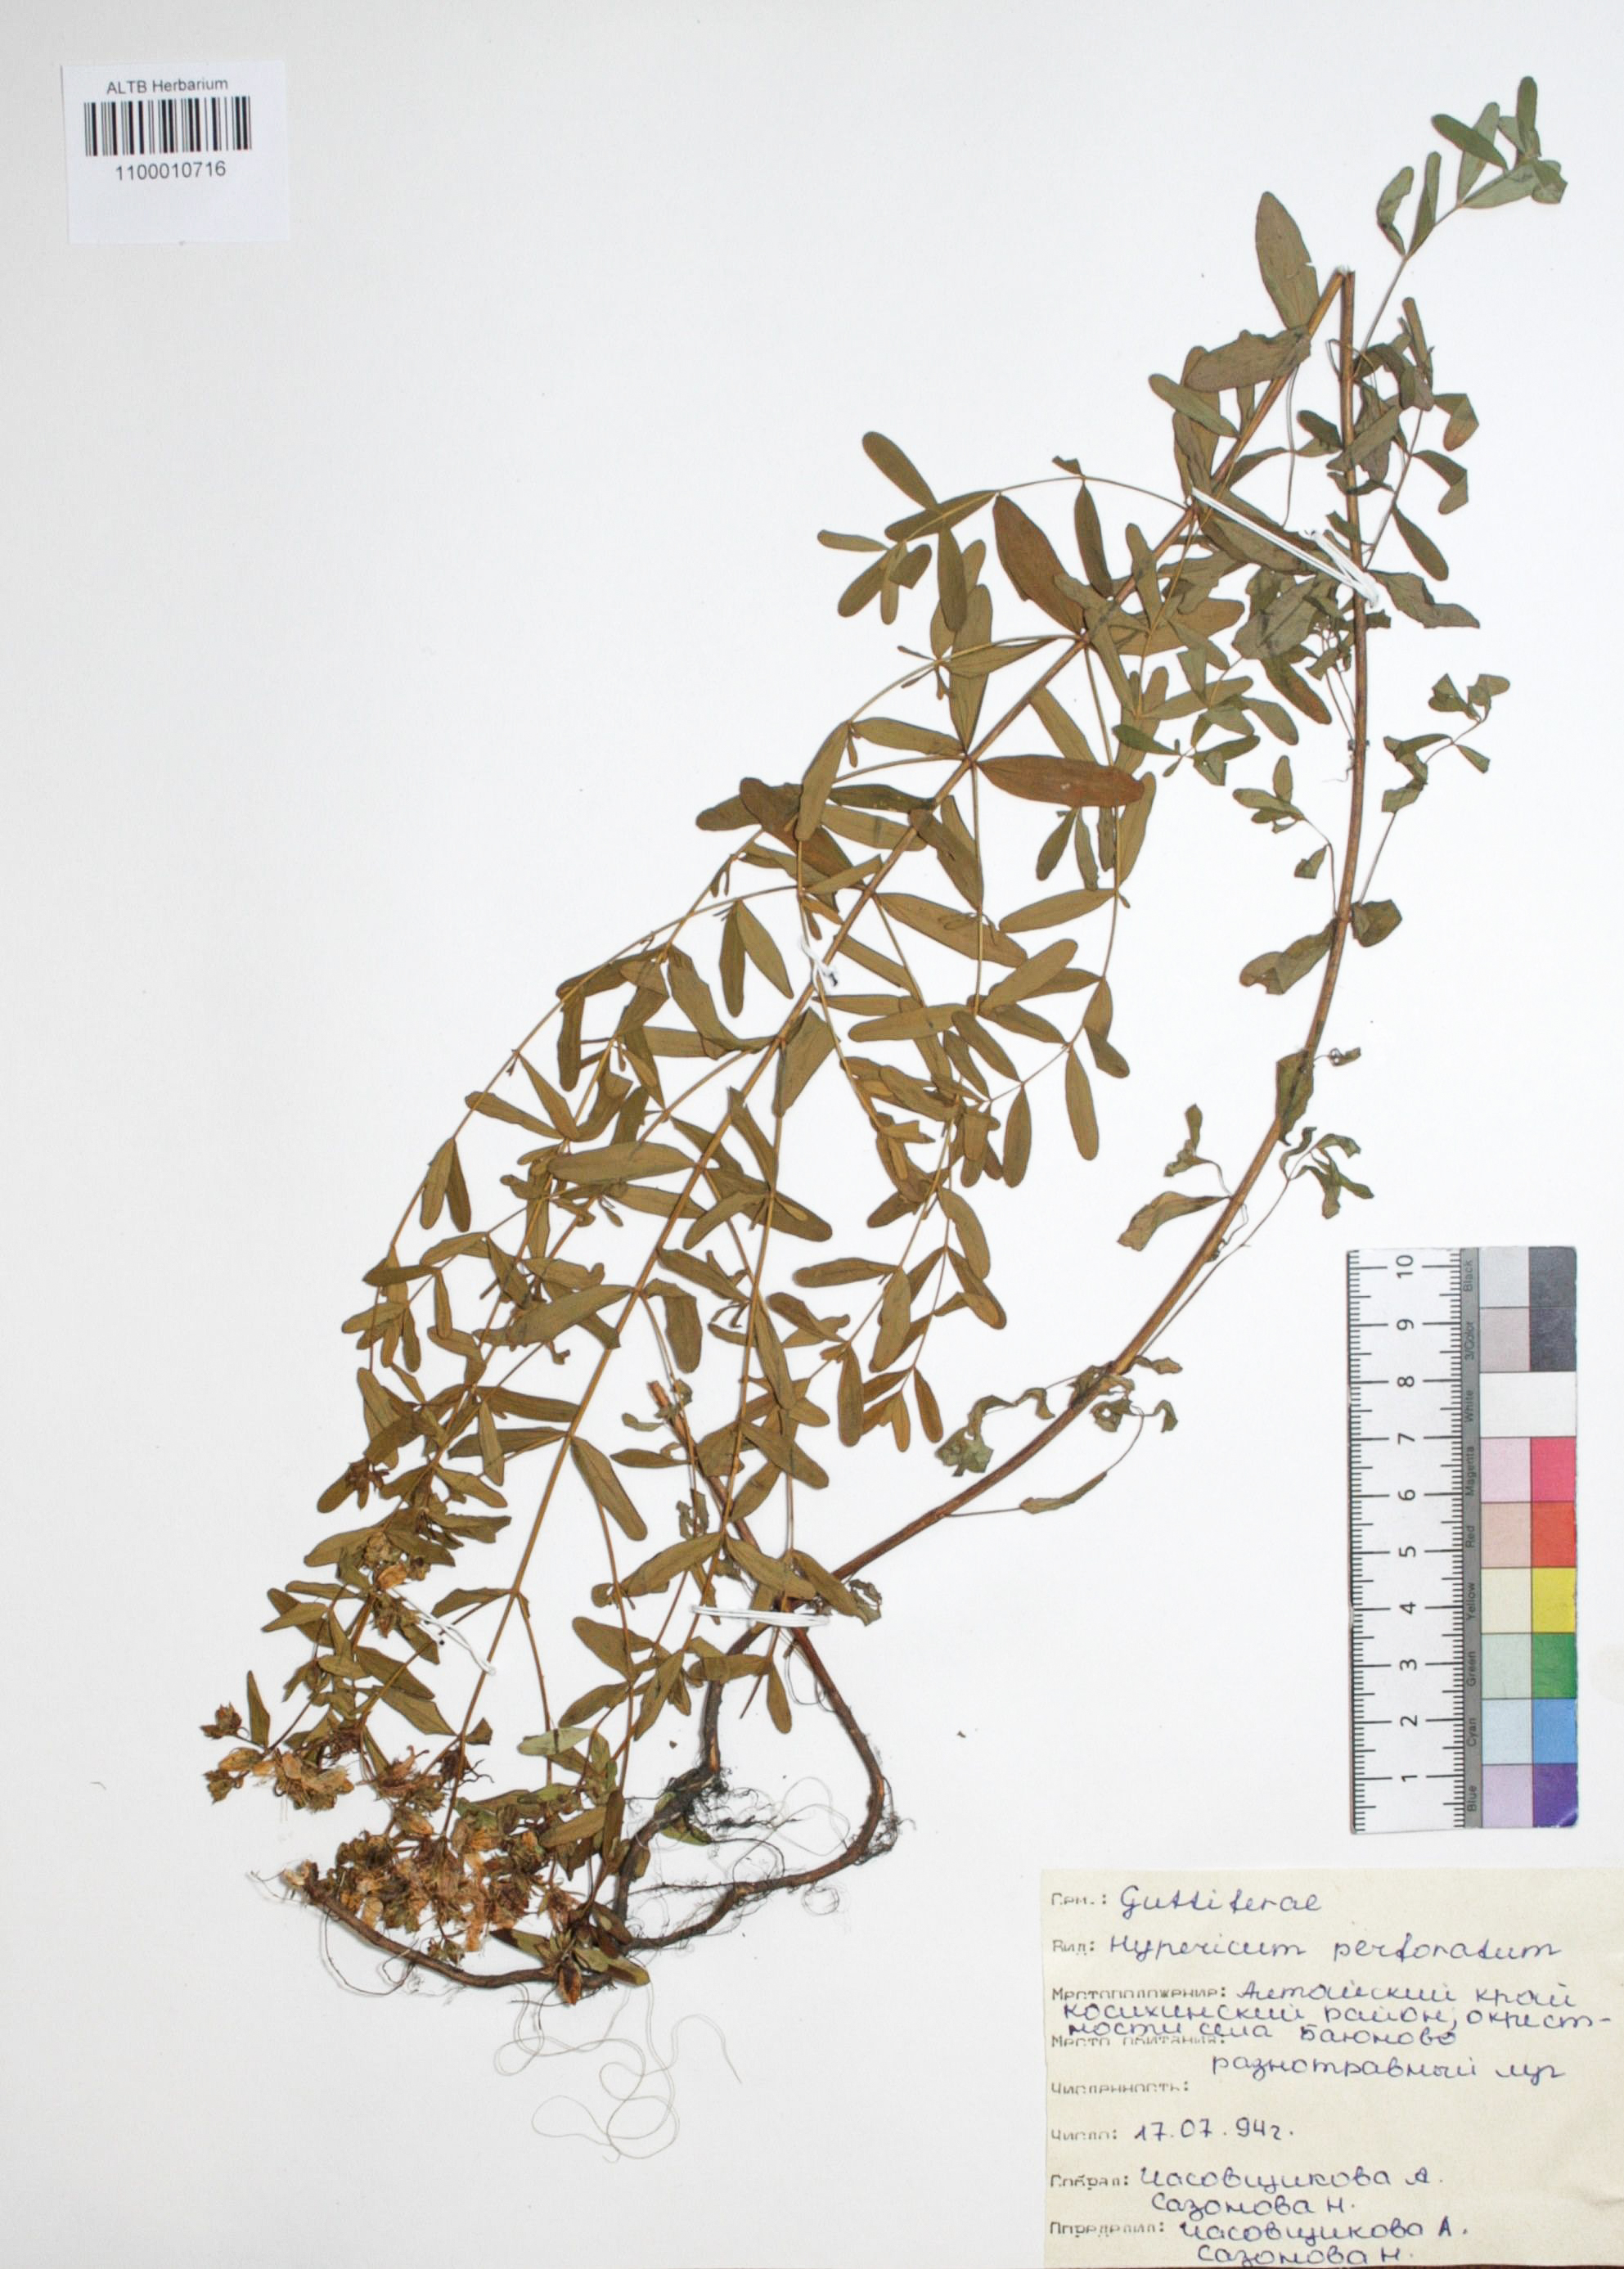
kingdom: Plantae
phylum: Tracheophyta
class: Magnoliopsida
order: Malpighiales
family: Hypericaceae
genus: Hypericum
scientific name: Hypericum perforatum
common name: Common st. johnswort
